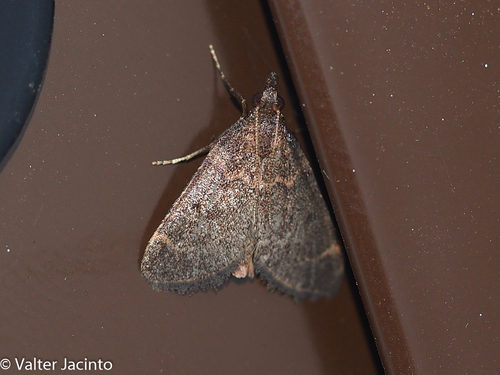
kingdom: Animalia
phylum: Arthropoda
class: Insecta
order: Lepidoptera
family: Pyralidae
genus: Stemmatophora
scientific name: Stemmatophora syriacalis
